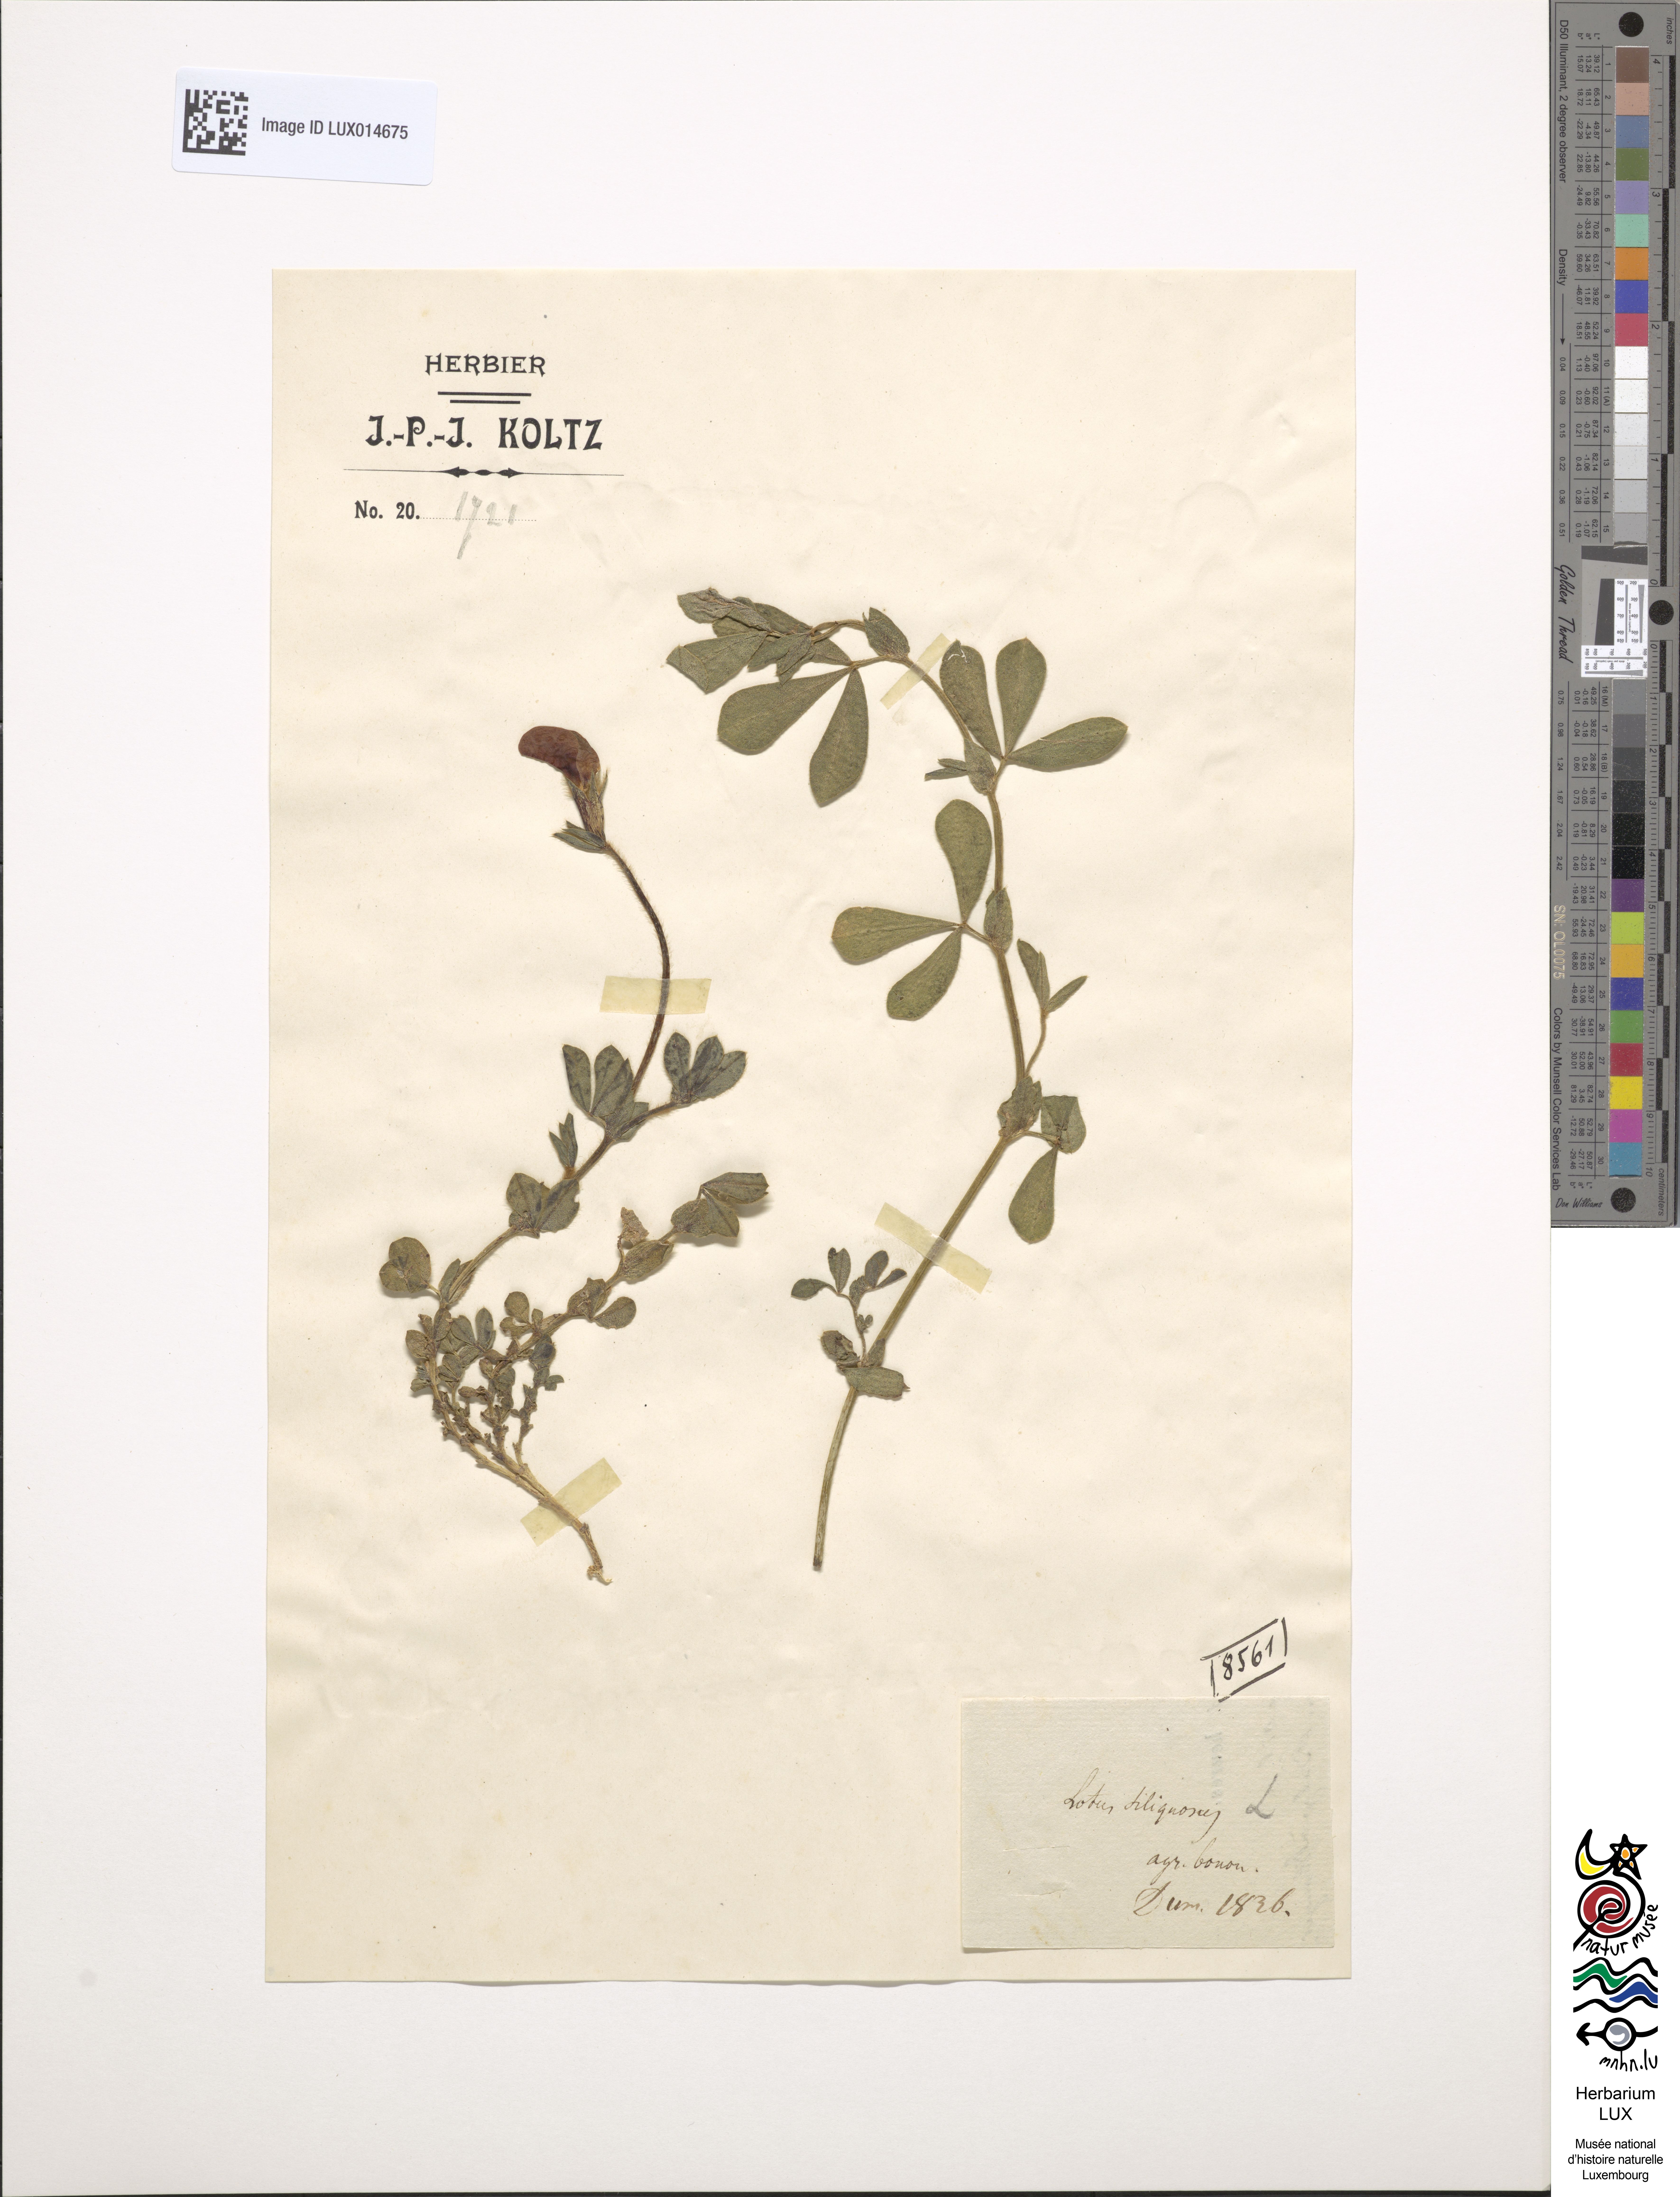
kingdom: Plantae
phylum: Tracheophyta
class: Magnoliopsida
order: Fabales
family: Fabaceae
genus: Lotus
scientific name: Lotus maritimus
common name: Dragon's-teeth
